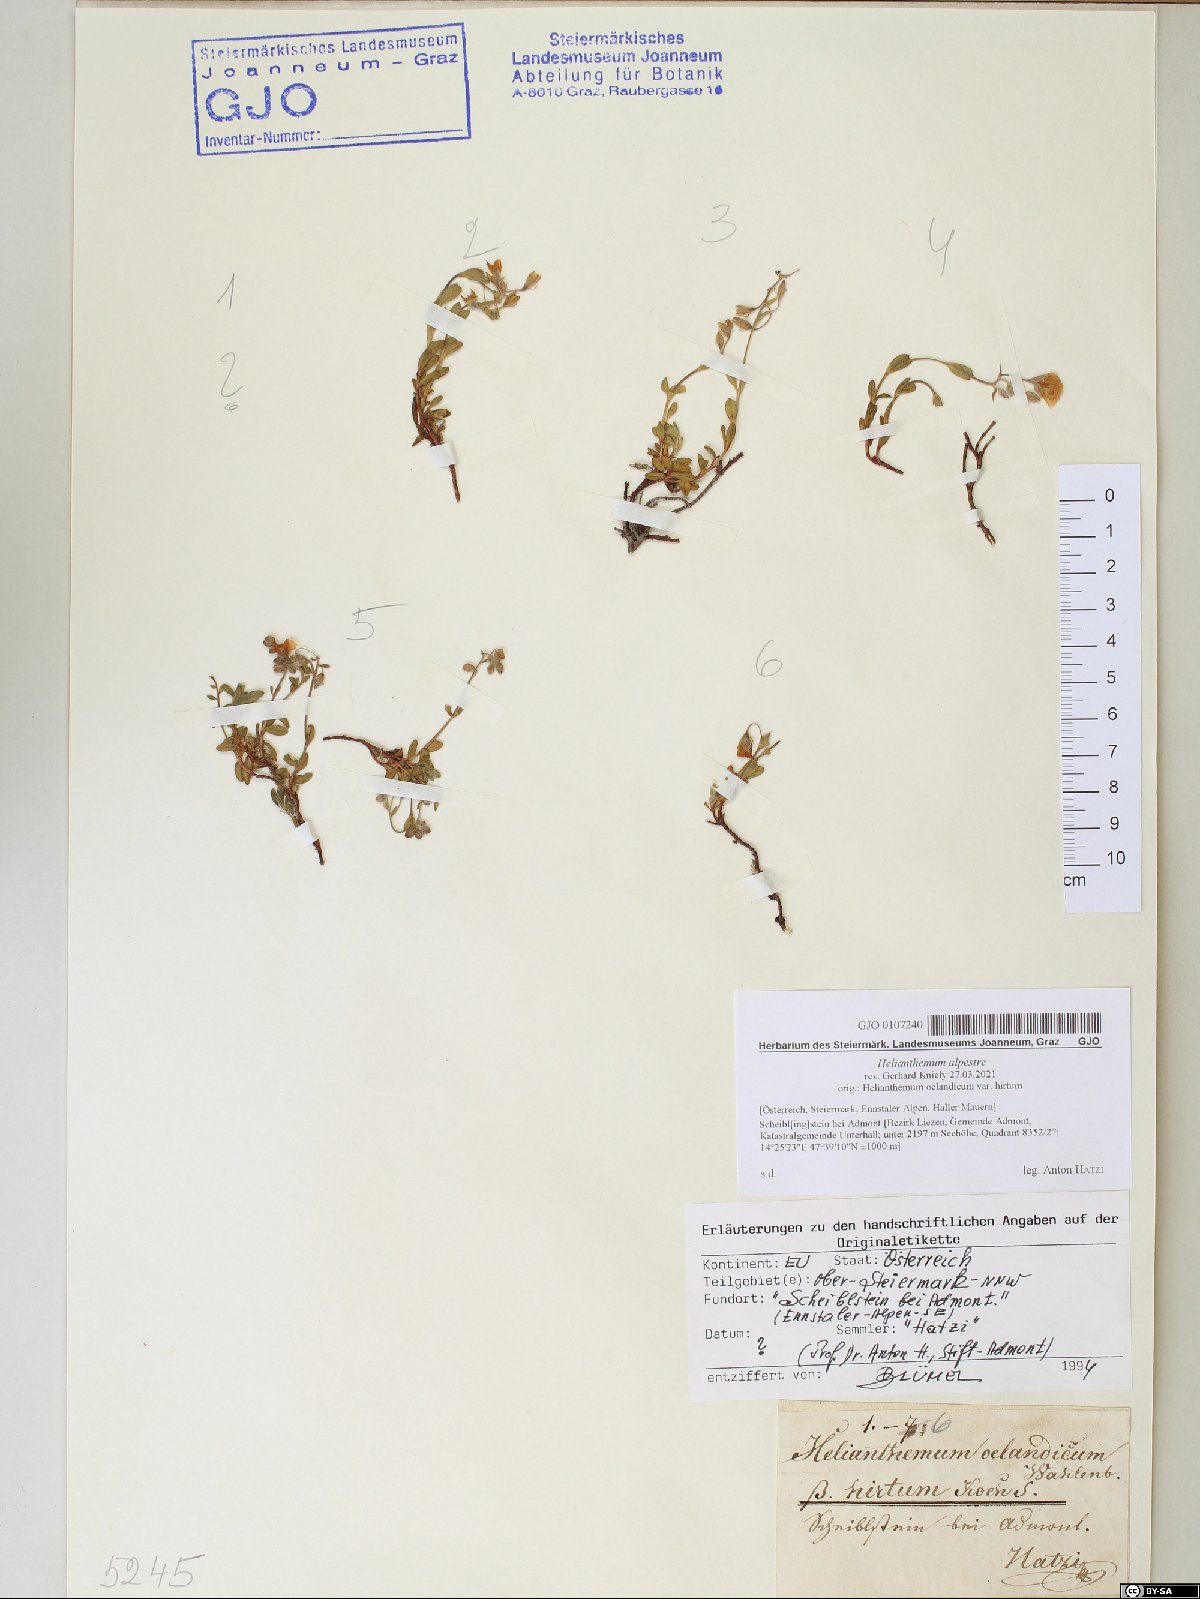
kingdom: Plantae
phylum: Tracheophyta
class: Magnoliopsida
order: Malvales
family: Cistaceae
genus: Helianthemum
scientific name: Helianthemum alpestre
